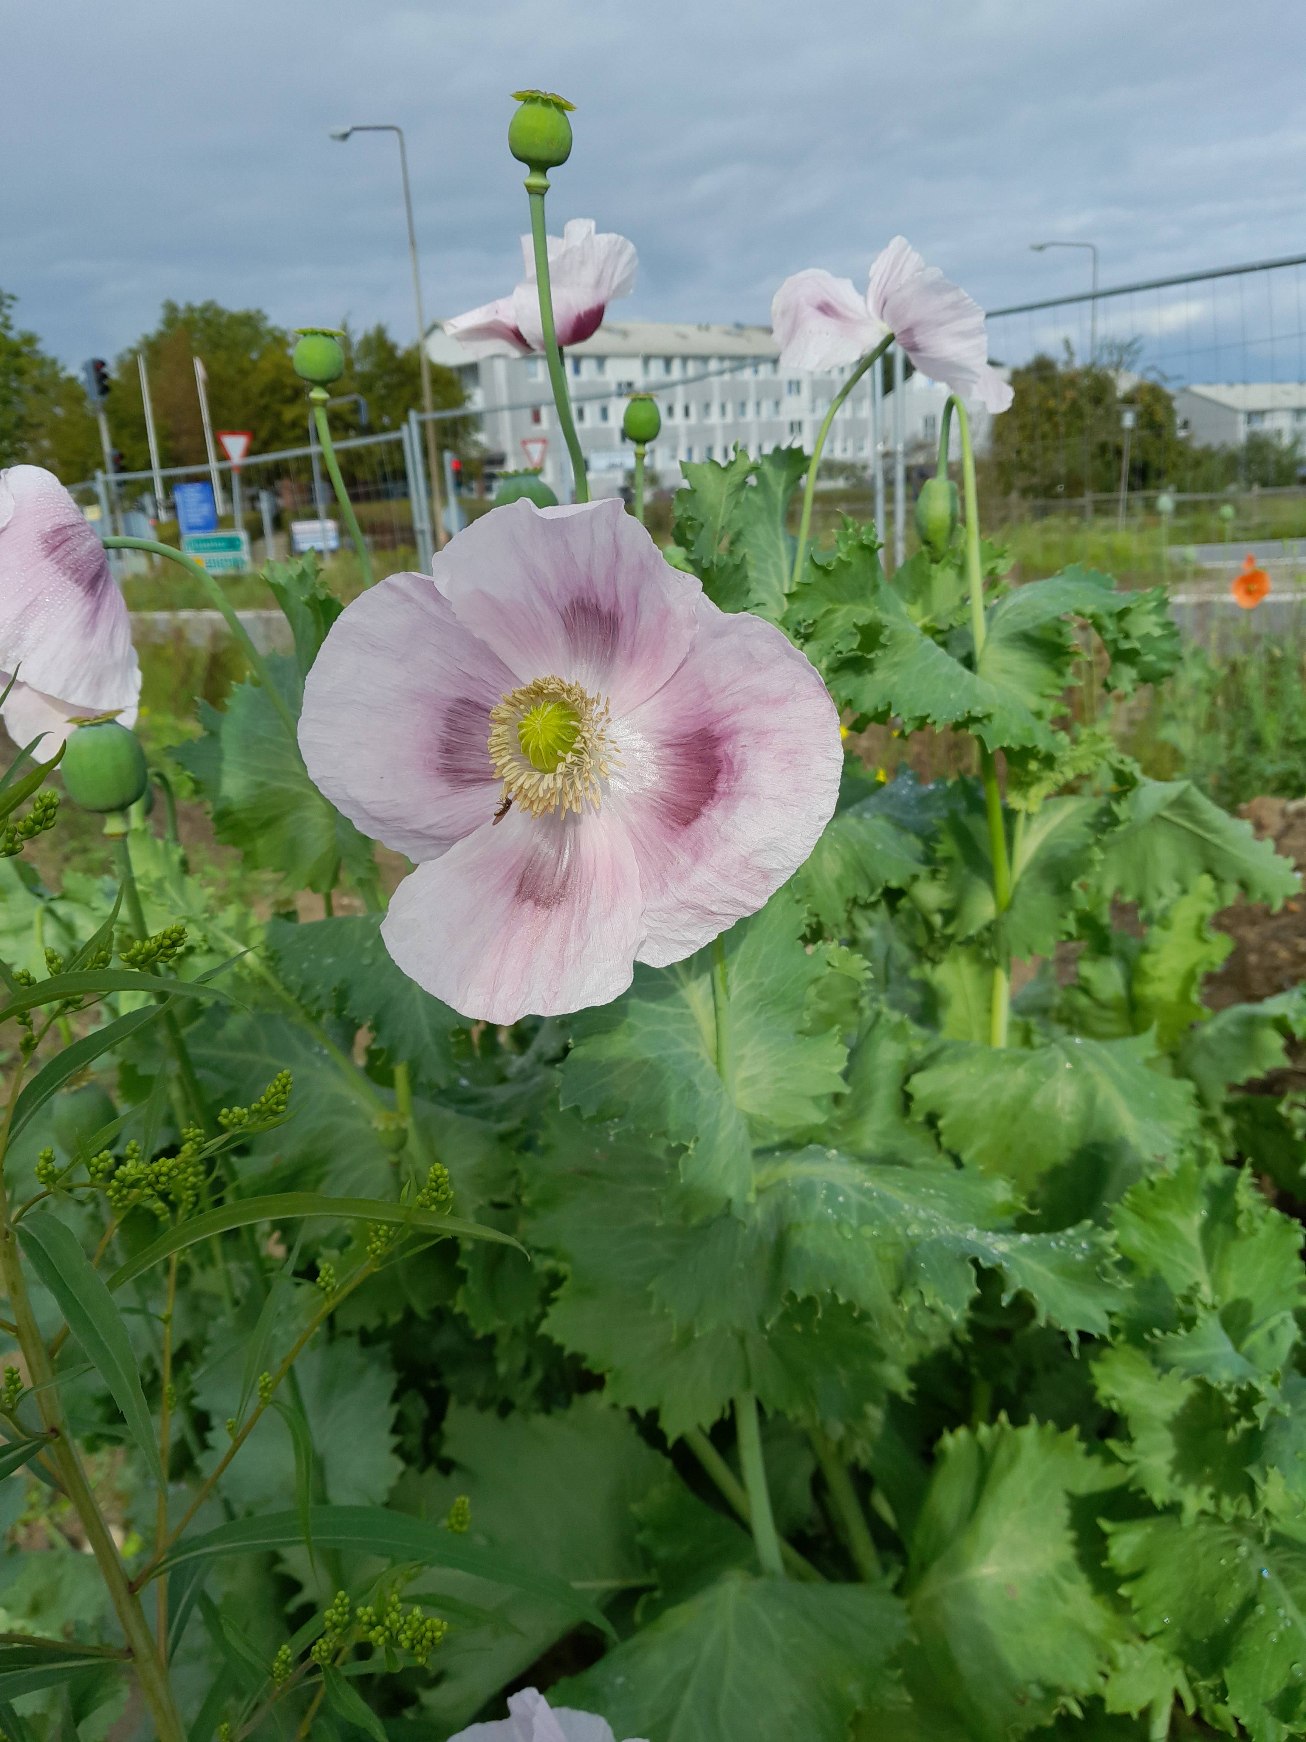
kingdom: Plantae
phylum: Tracheophyta
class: Magnoliopsida
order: Ranunculales
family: Papaveraceae
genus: Papaver
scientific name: Papaver somniferum
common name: Opium-valmue
